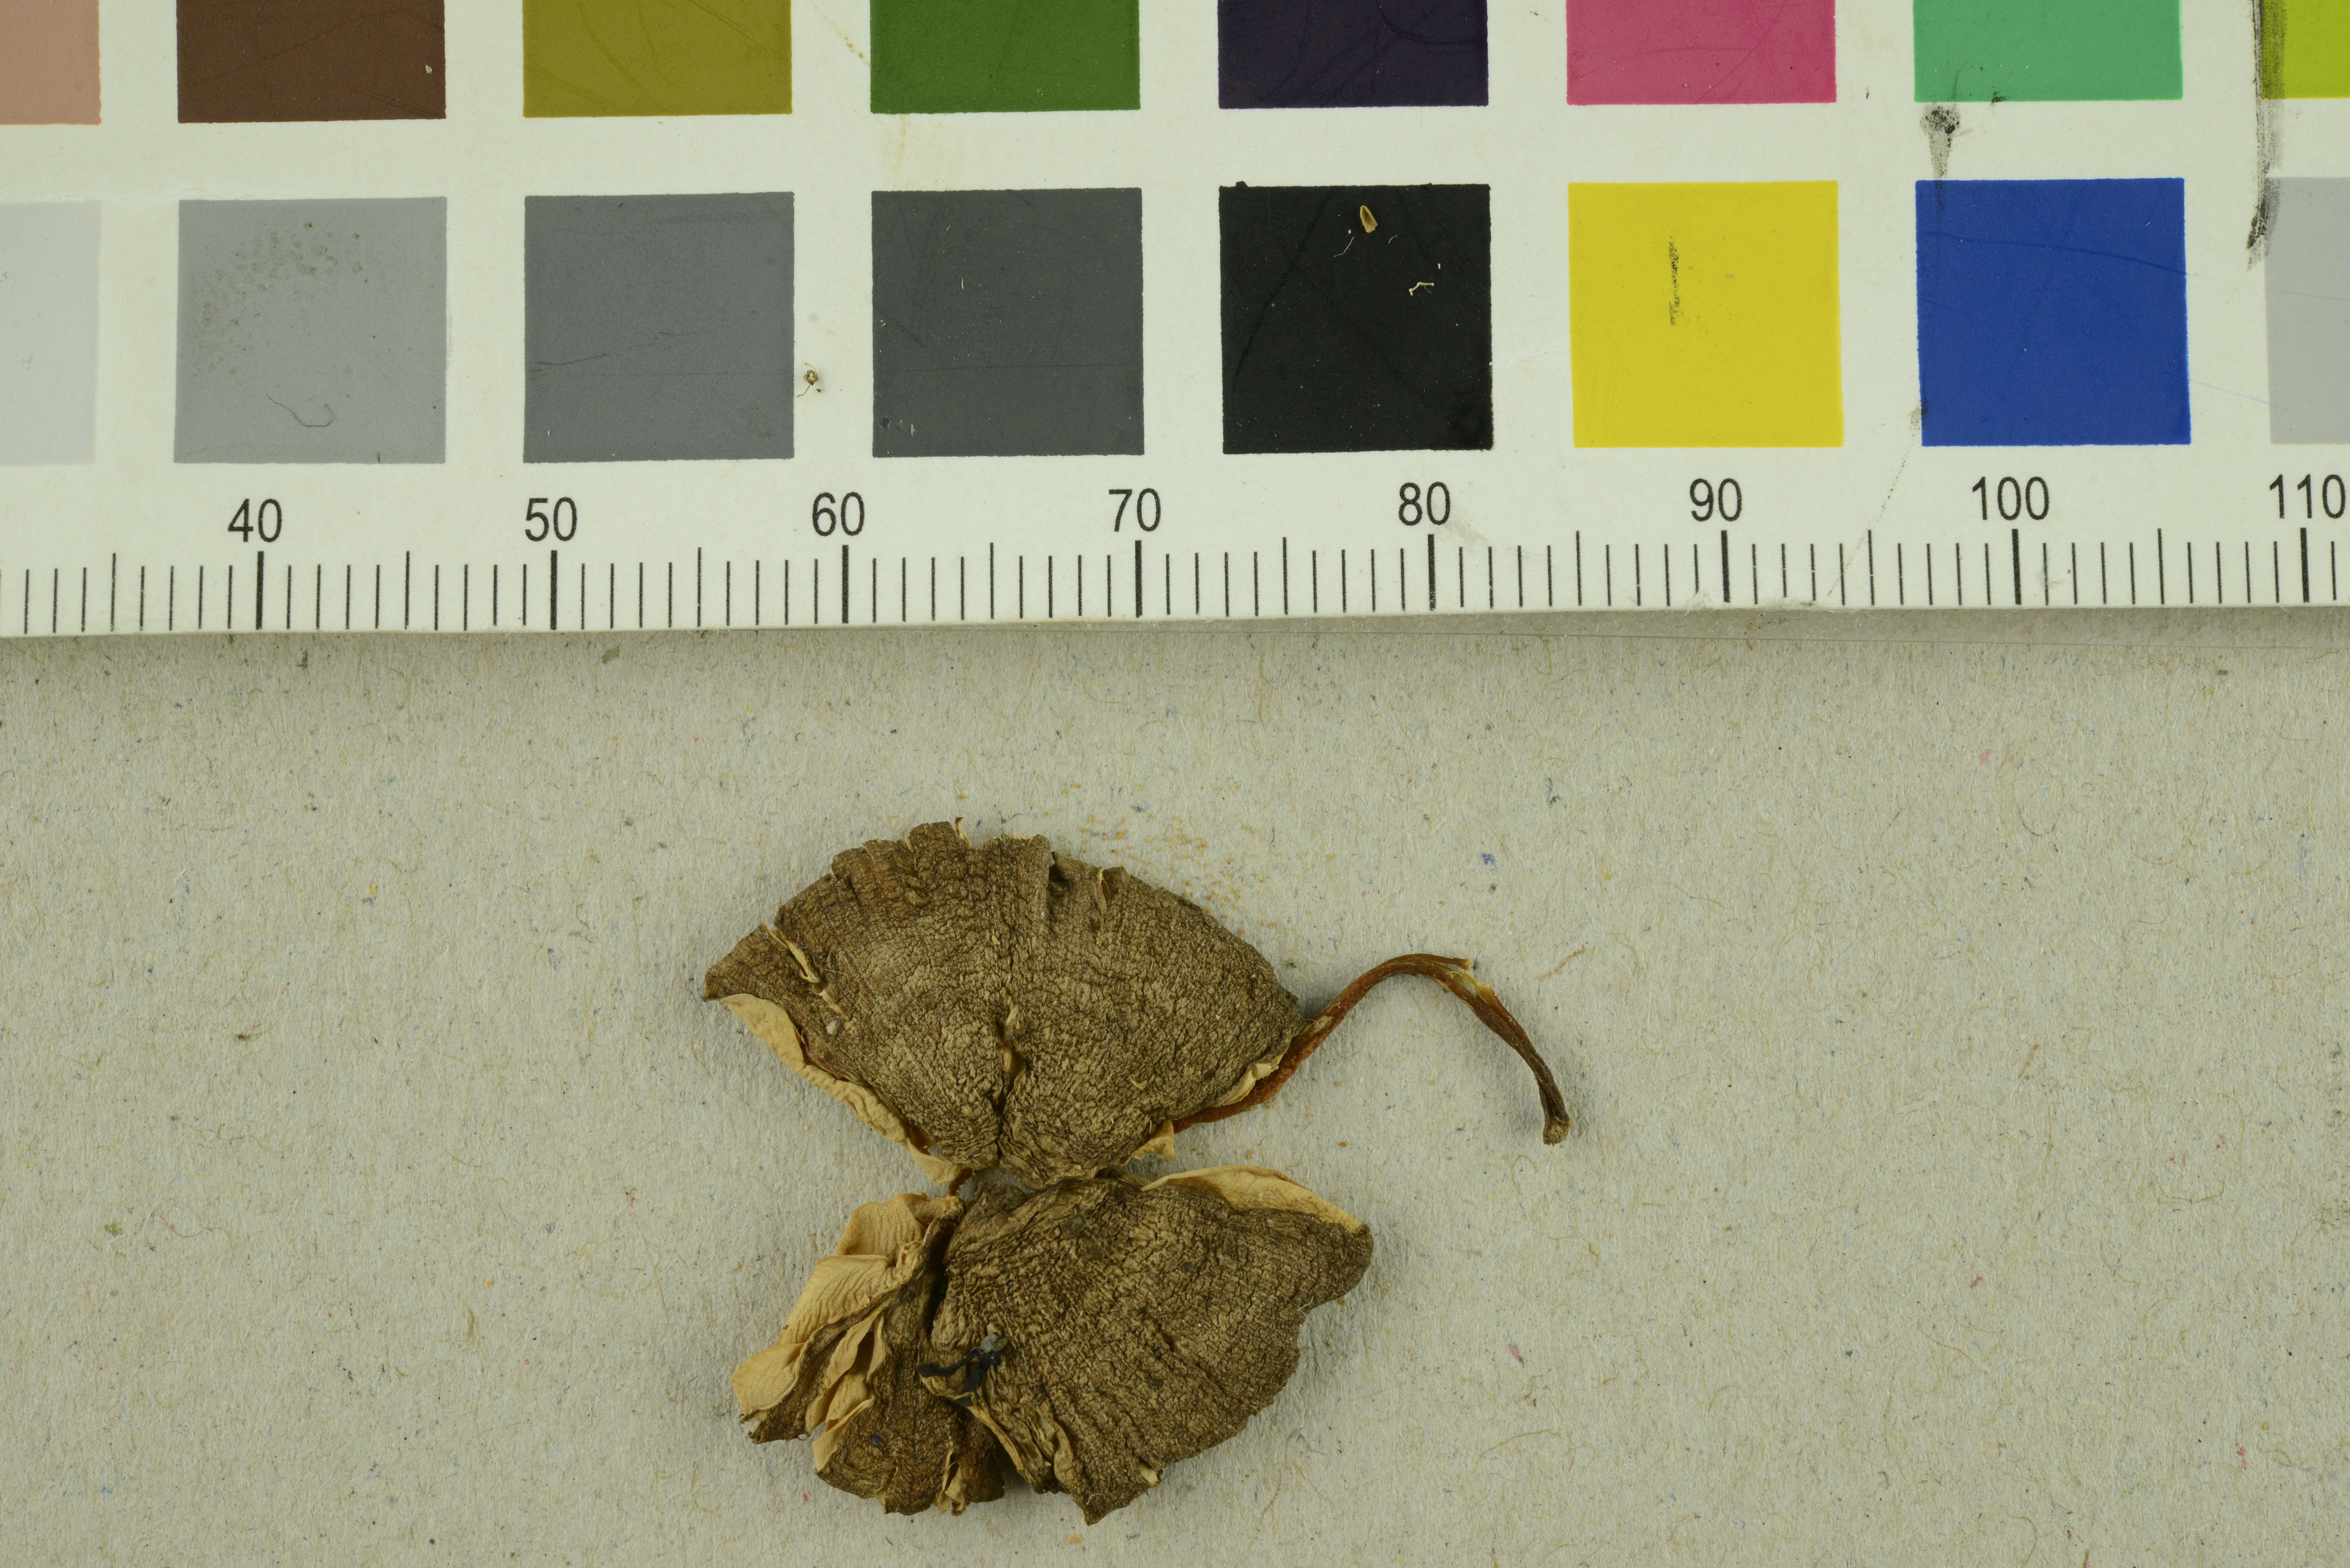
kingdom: Fungi
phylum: Basidiomycota
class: Agaricomycetes
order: Agaricales
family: Entolomataceae
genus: Entoloma
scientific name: Entoloma sororpratulense
